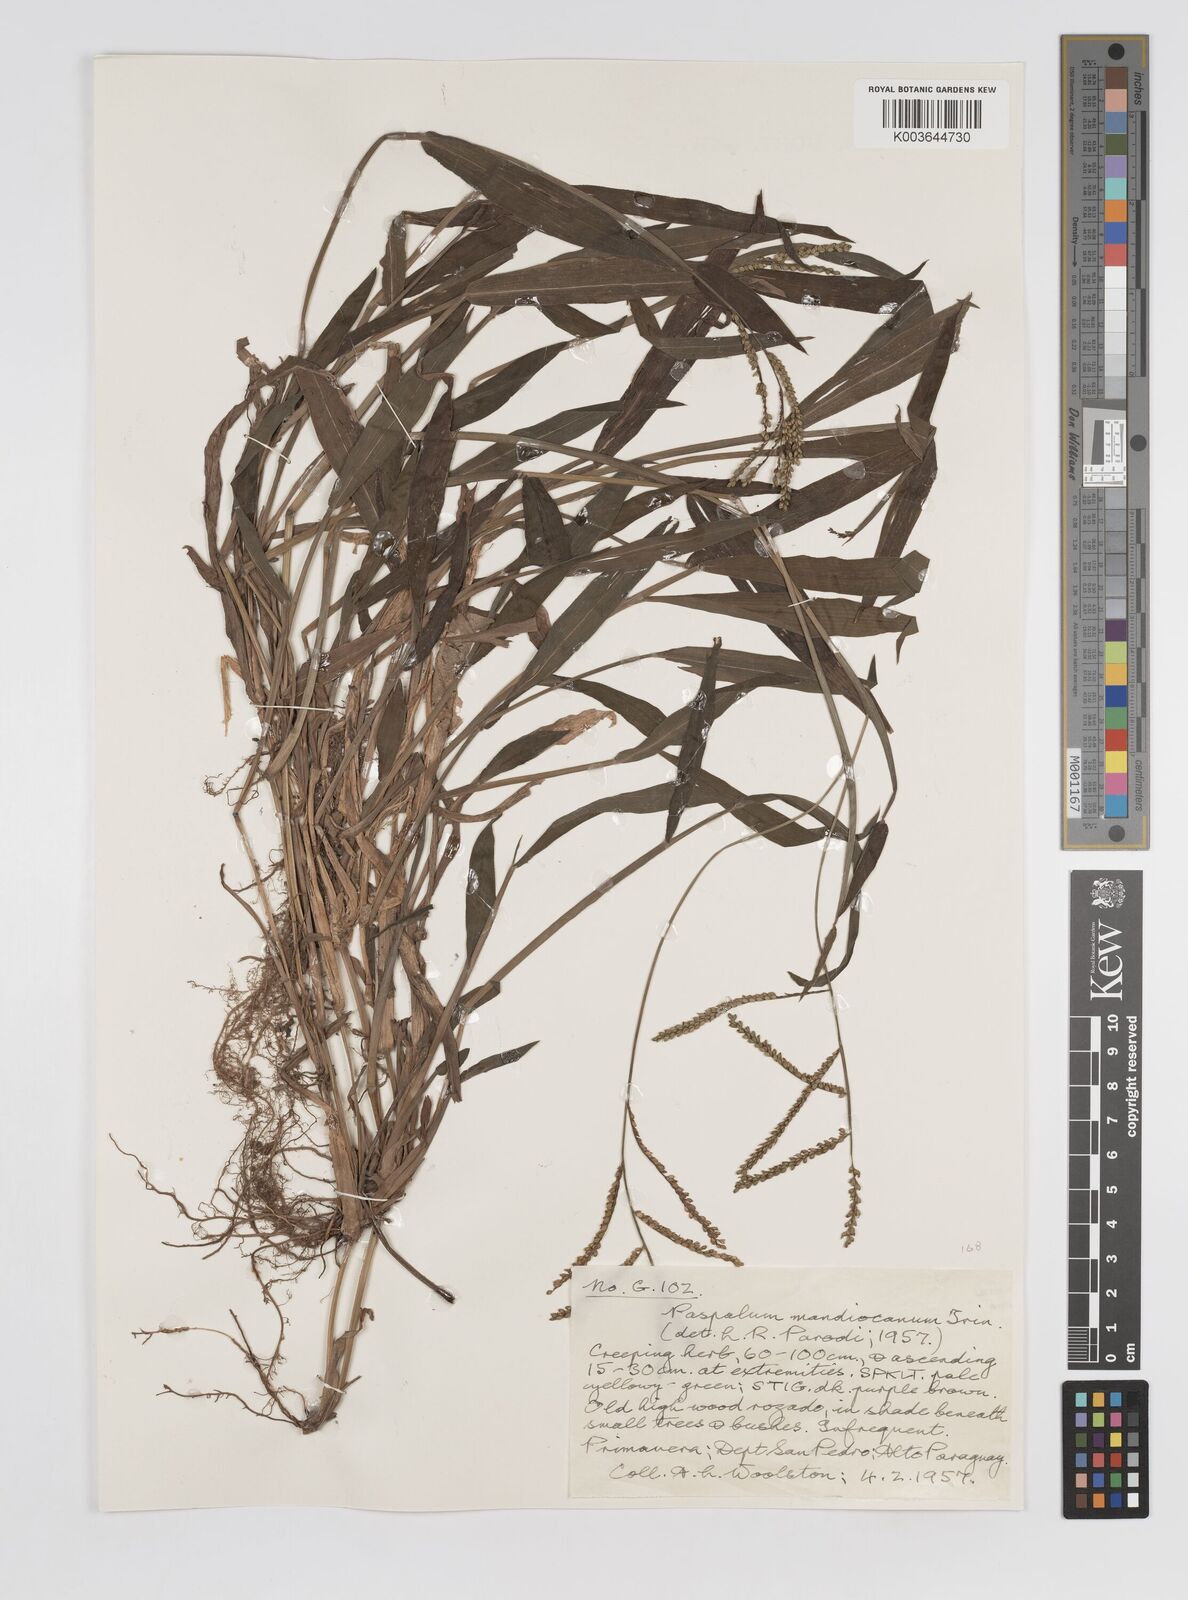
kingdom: Plantae
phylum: Tracheophyta
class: Liliopsida
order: Poales
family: Poaceae
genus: Paspalum
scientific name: Paspalum mandiocanum
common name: Paspalum
